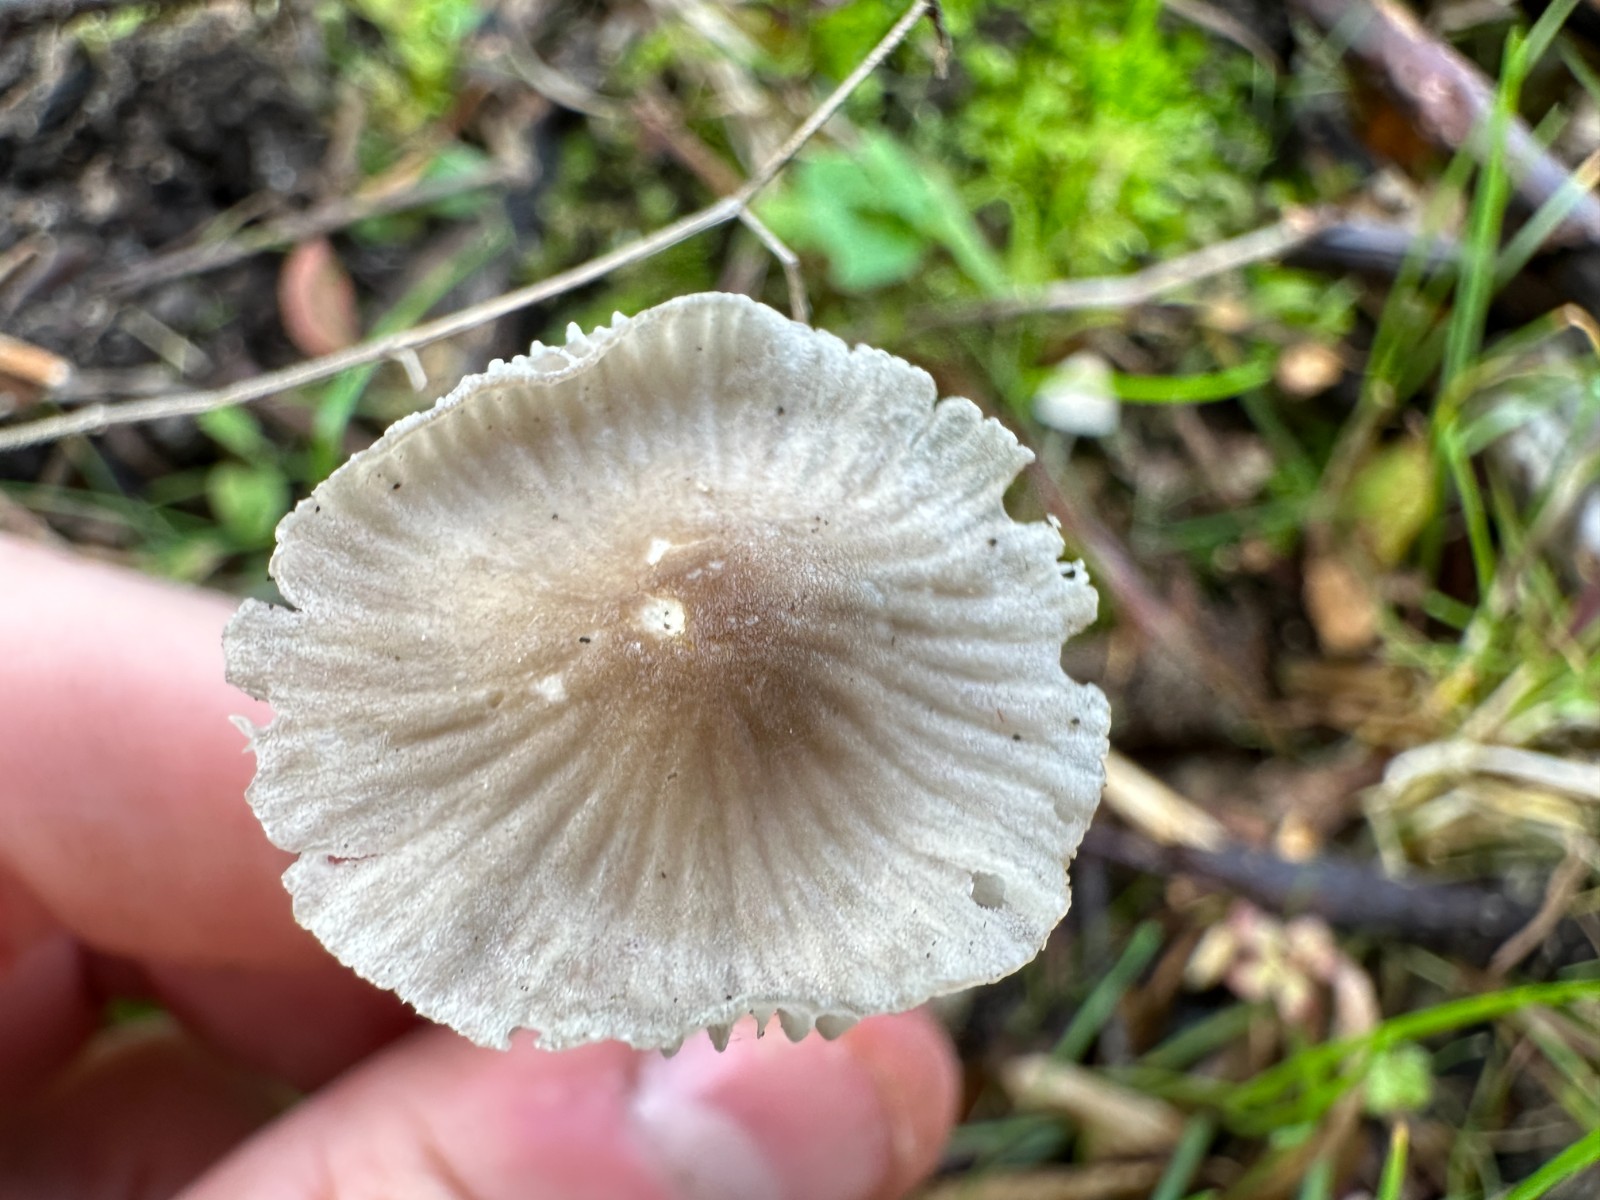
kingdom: Fungi
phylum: Basidiomycota
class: Agaricomycetes
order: Agaricales
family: Mycenaceae
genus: Mycena
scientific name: Mycena
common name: huesvamp
